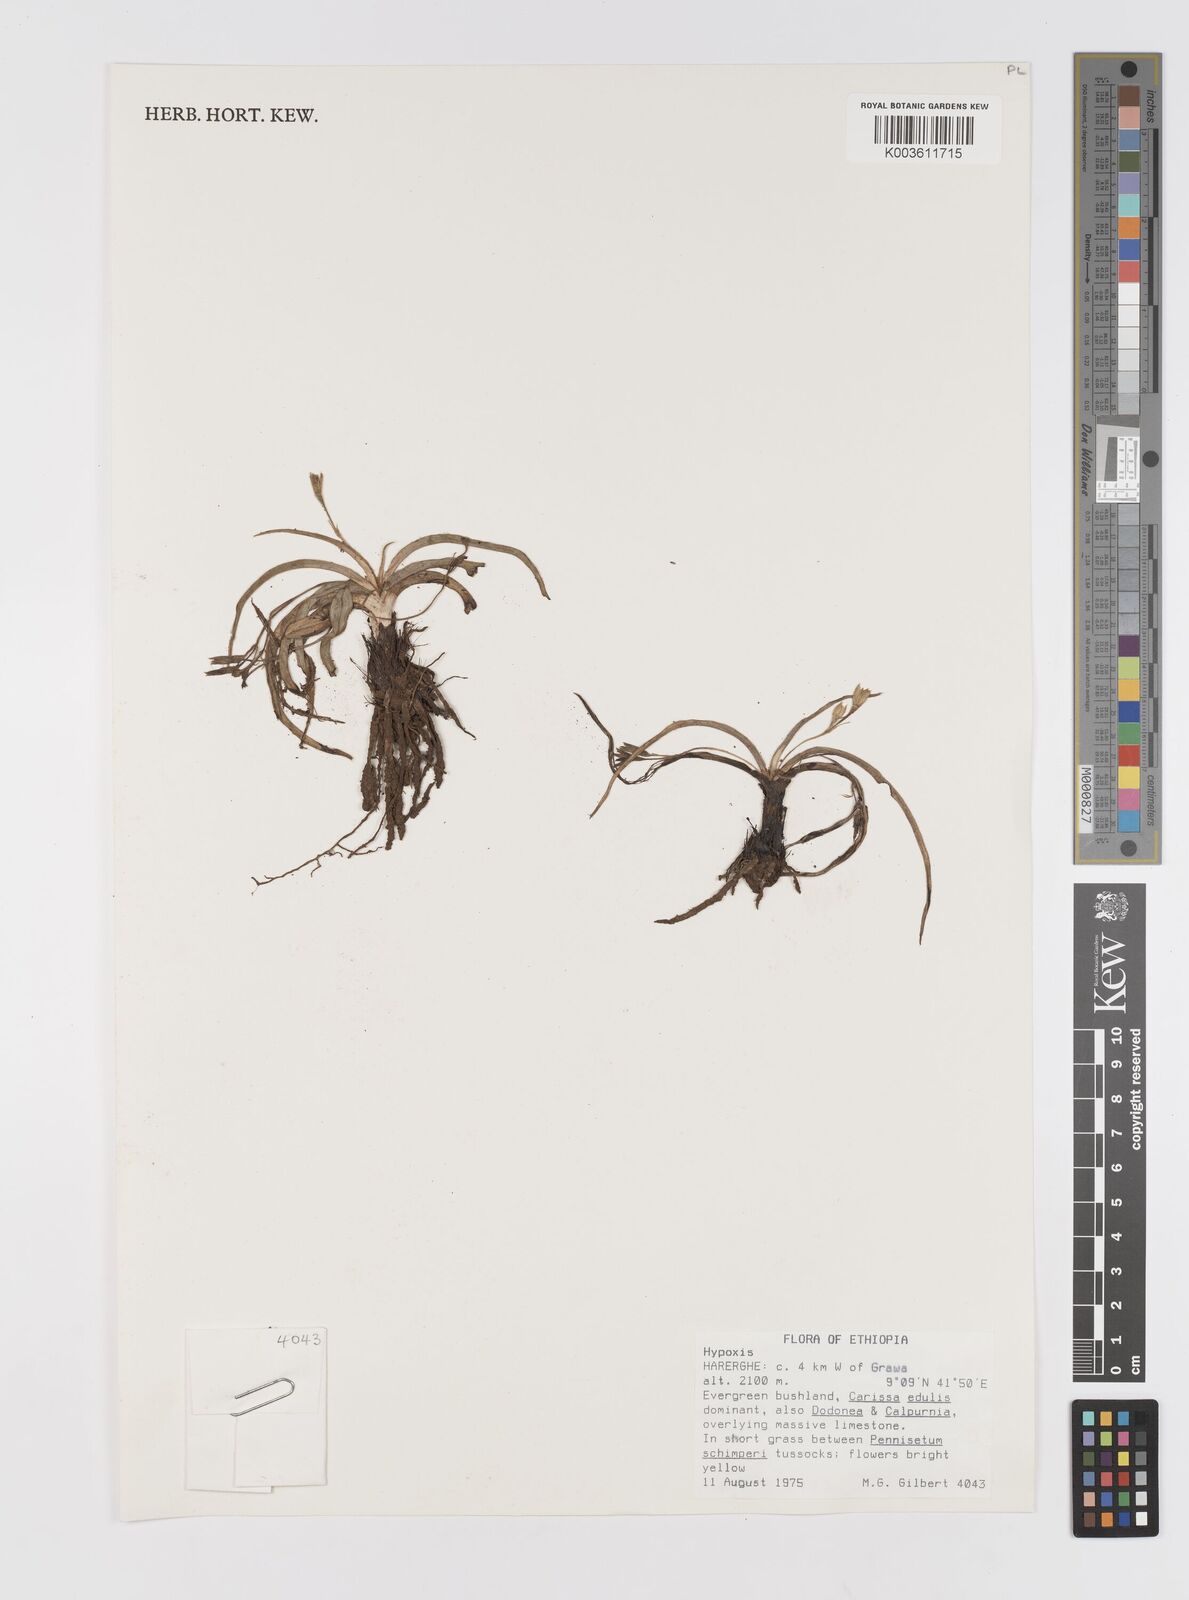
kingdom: Plantae
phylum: Tracheophyta
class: Liliopsida
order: Asparagales
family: Hypoxidaceae
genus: Hypoxis
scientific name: Hypoxis villosa
